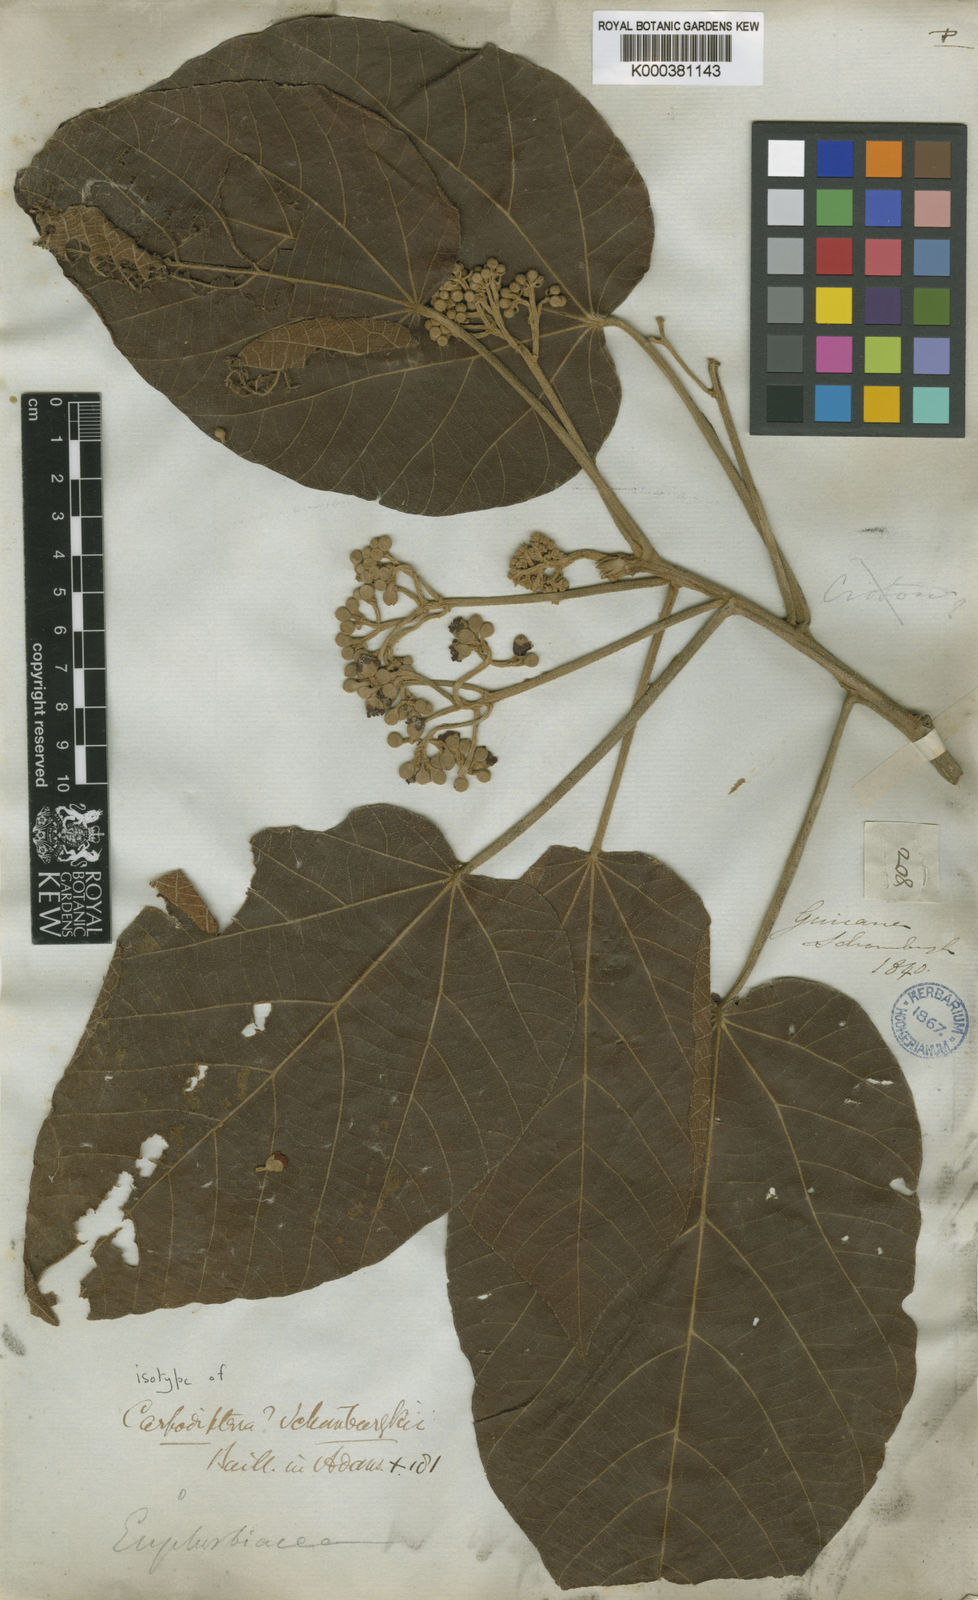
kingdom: Plantae
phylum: Tracheophyta
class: Magnoliopsida
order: Malvales
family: Malvaceae
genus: Christiana
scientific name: Christiana africana
